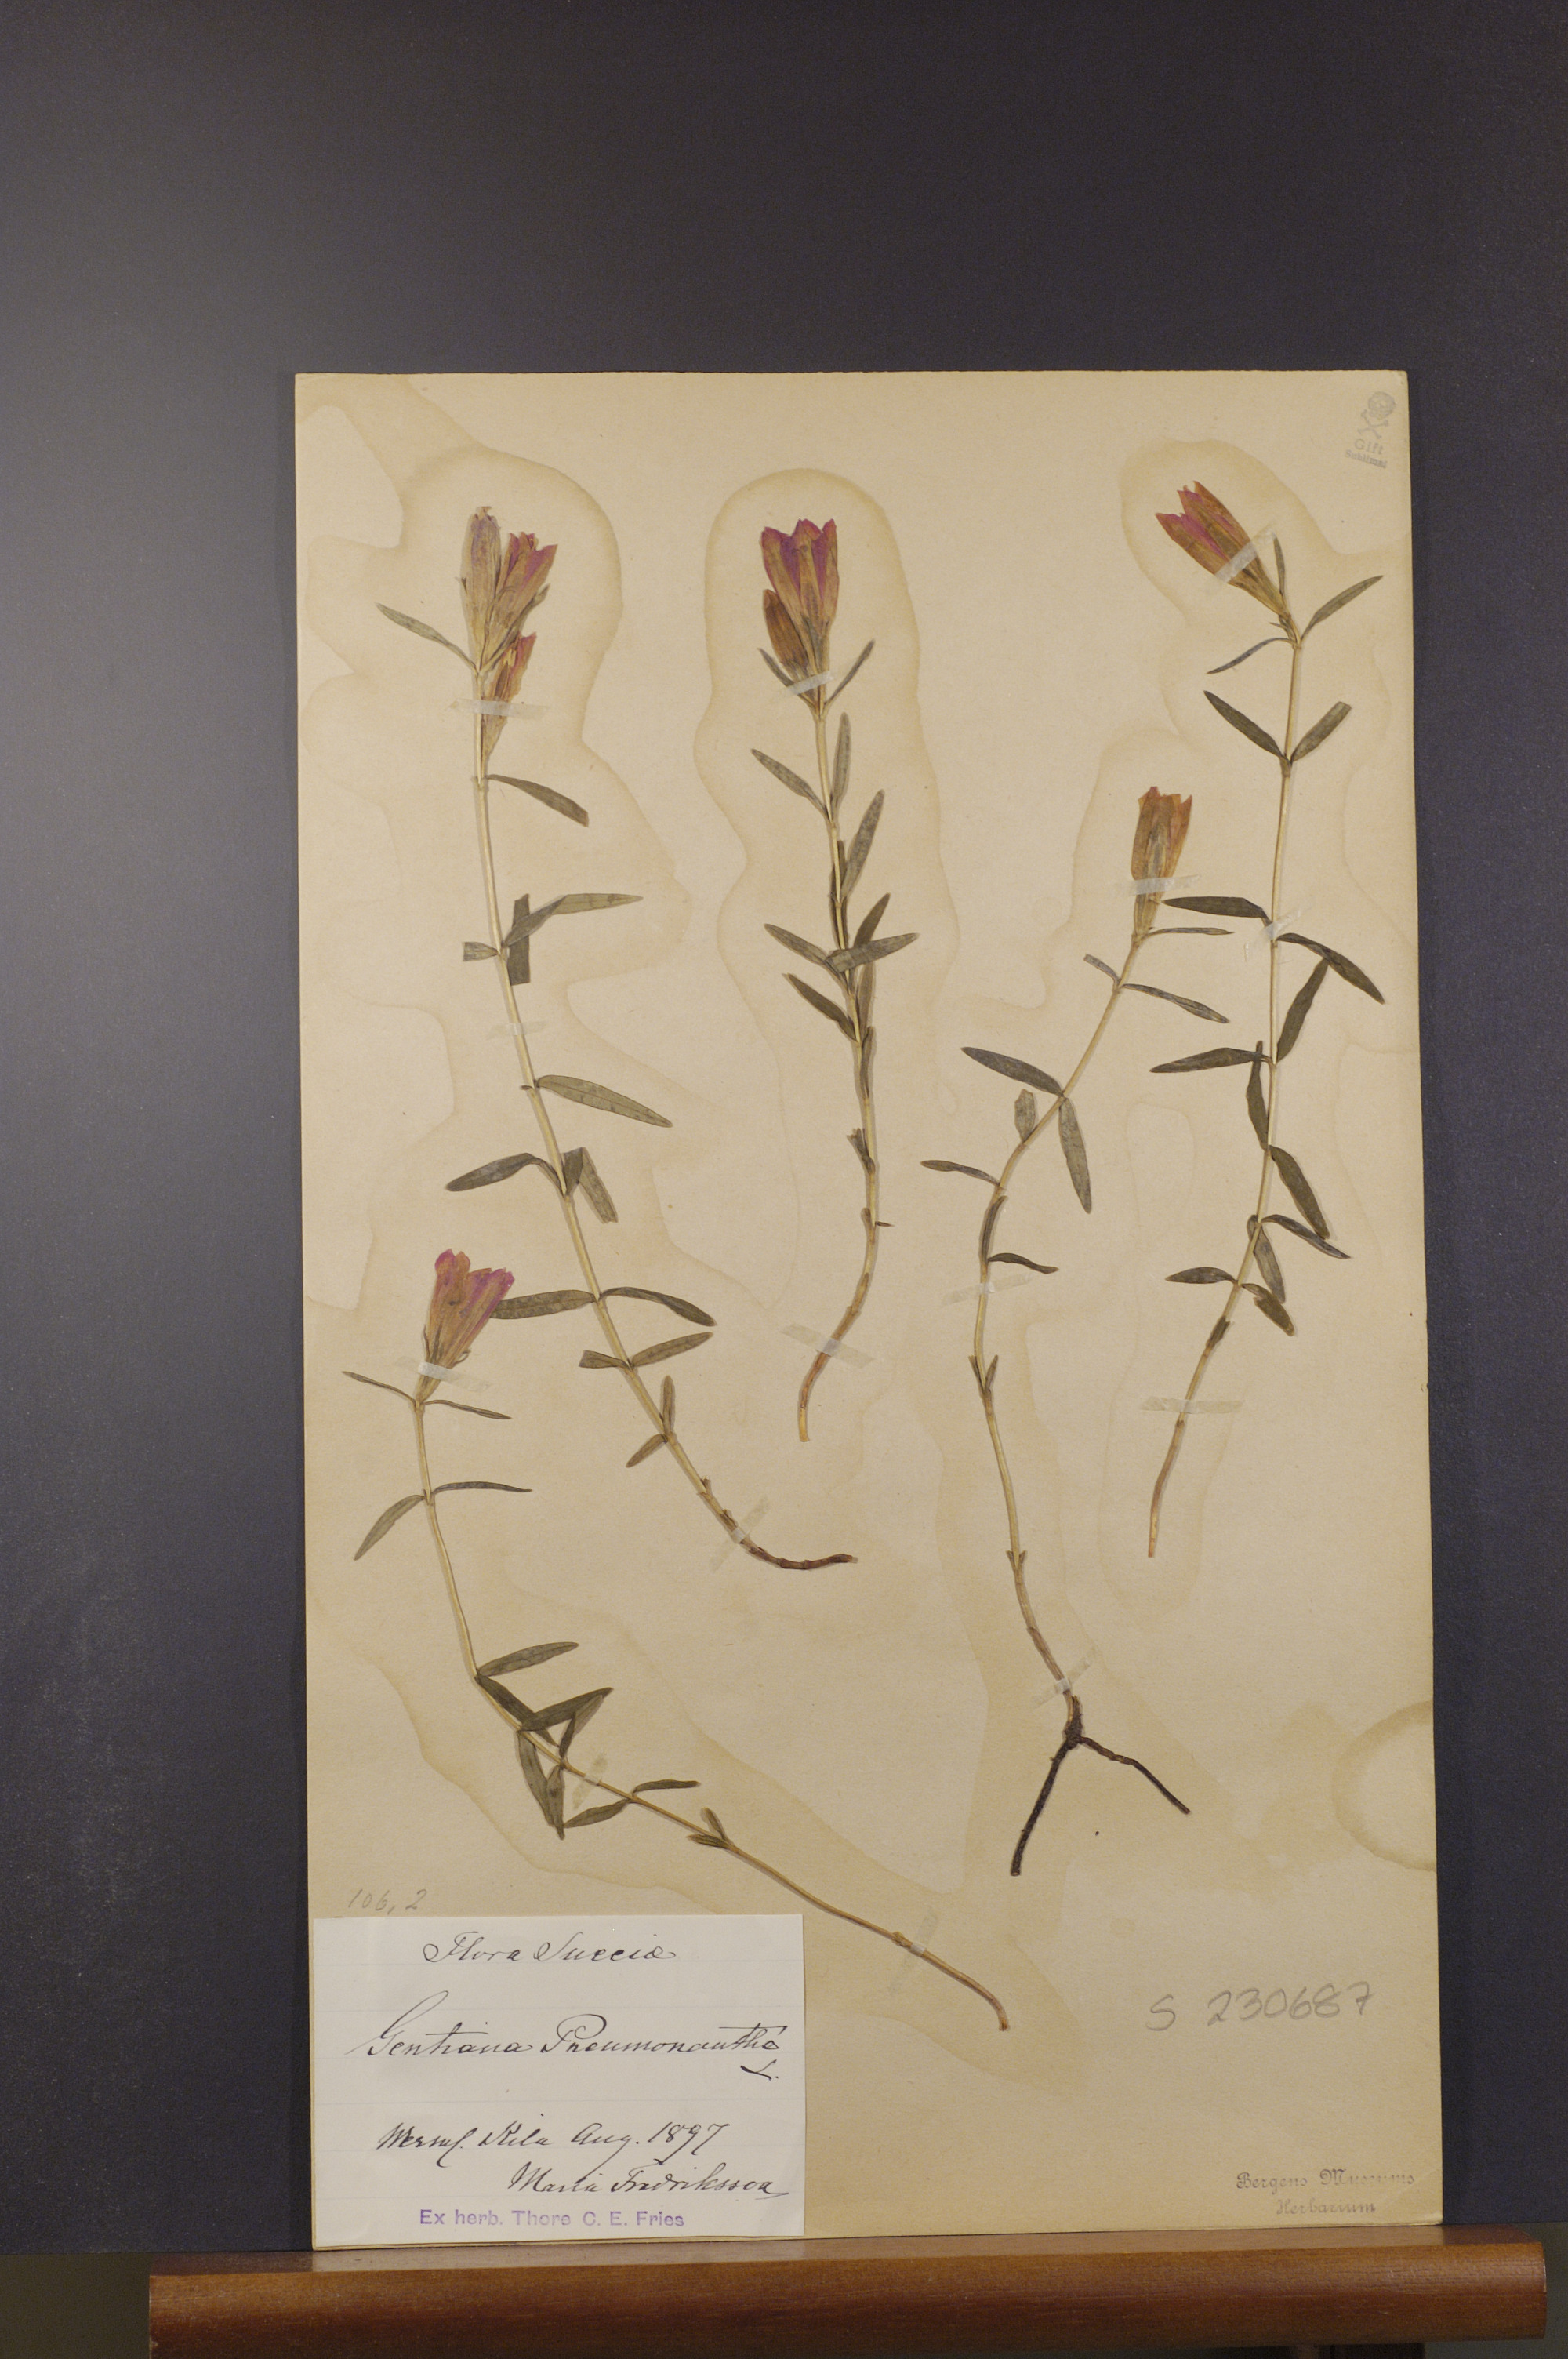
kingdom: Plantae
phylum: Tracheophyta
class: Magnoliopsida
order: Gentianales
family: Gentianaceae
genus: Gentiana
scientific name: Gentiana pneumonanthe
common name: Marsh gentian
